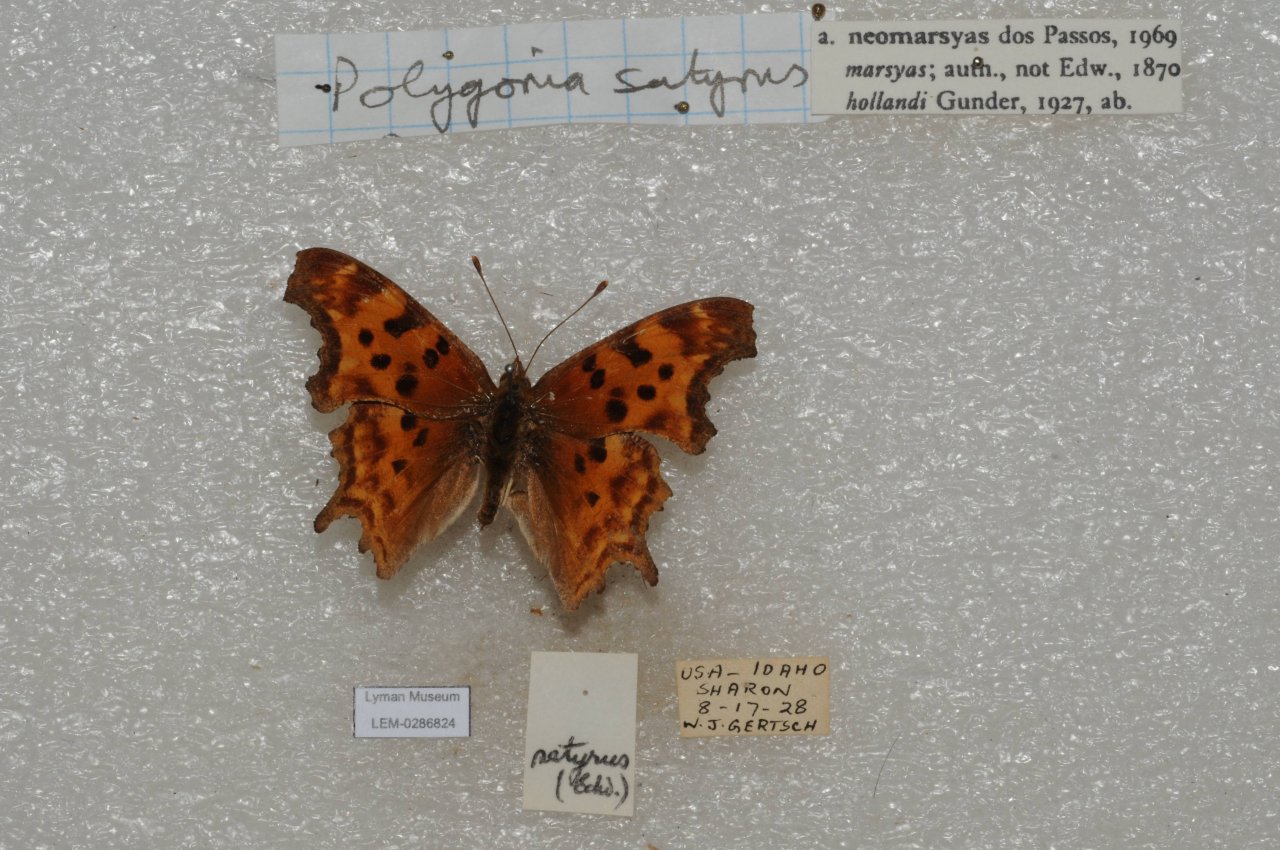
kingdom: Animalia
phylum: Arthropoda
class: Insecta
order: Lepidoptera
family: Nymphalidae
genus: Polygonia
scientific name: Polygonia satyrus
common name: Satyr Comma
